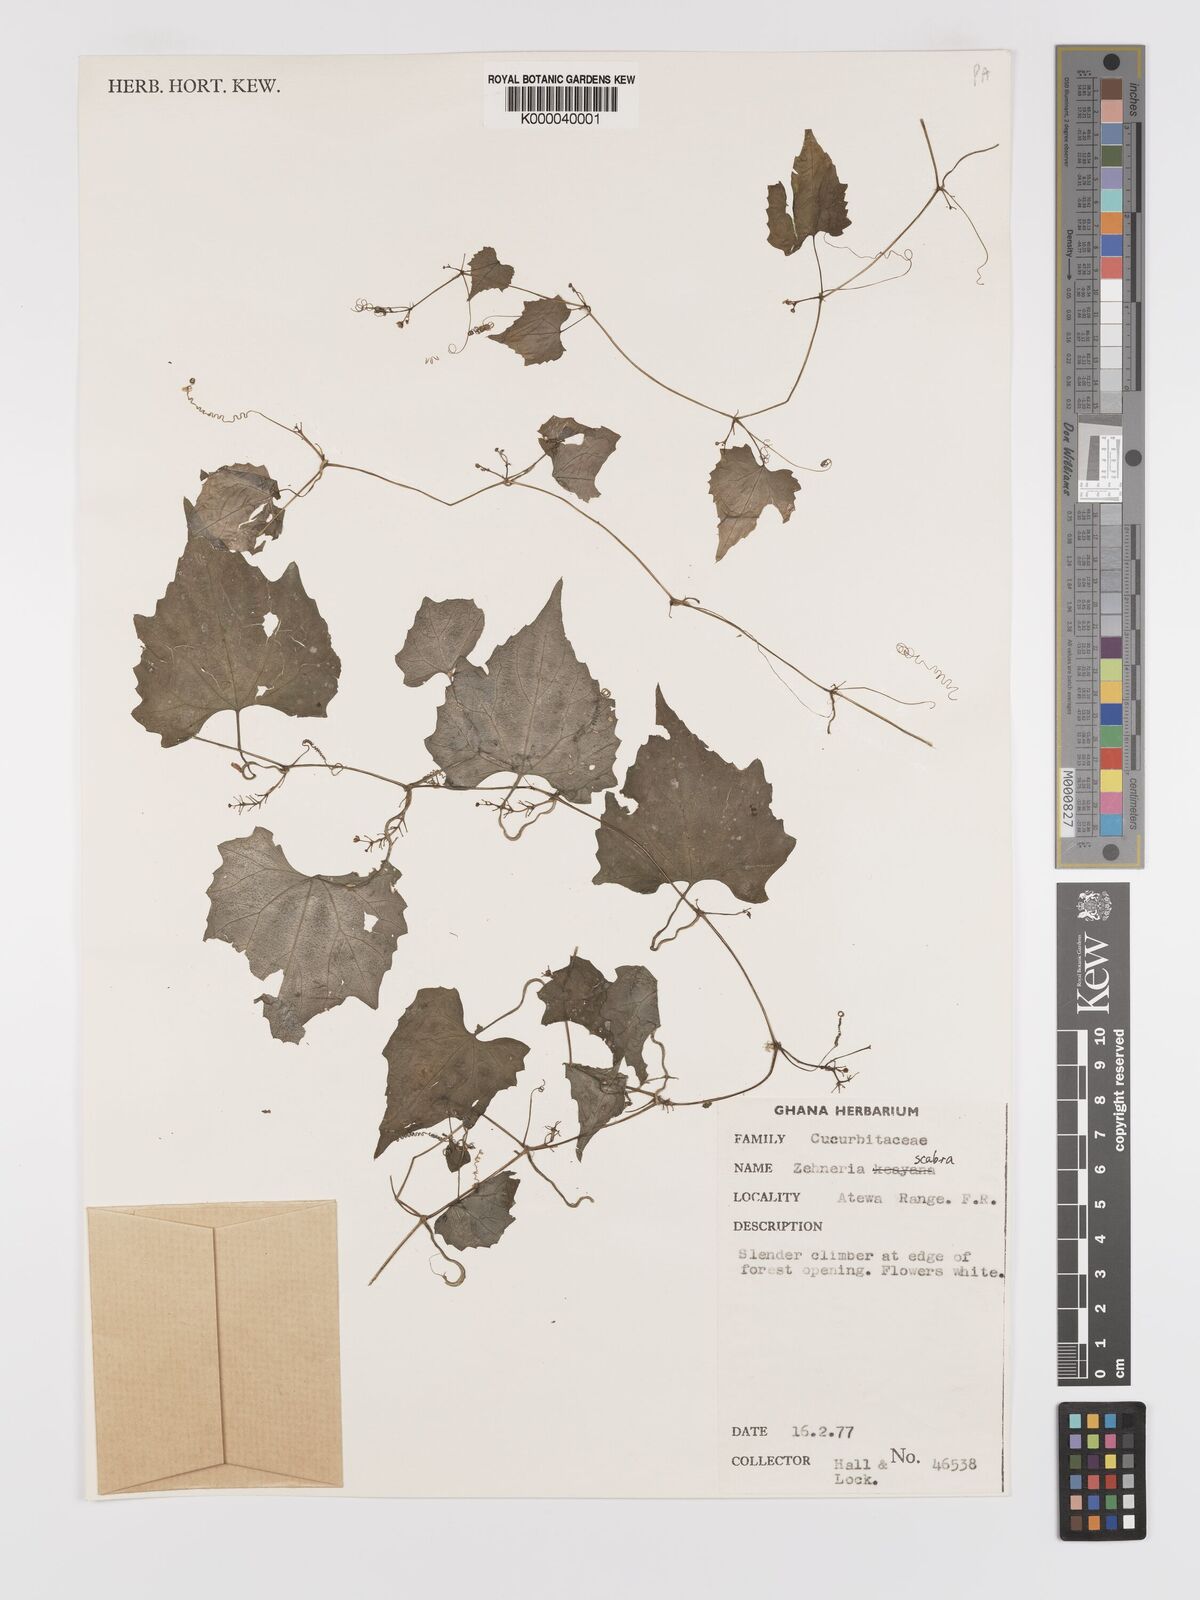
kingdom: Plantae
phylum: Tracheophyta
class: Magnoliopsida
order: Cucurbitales
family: Cucurbitaceae
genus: Zehneria
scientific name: Zehneria keayana
